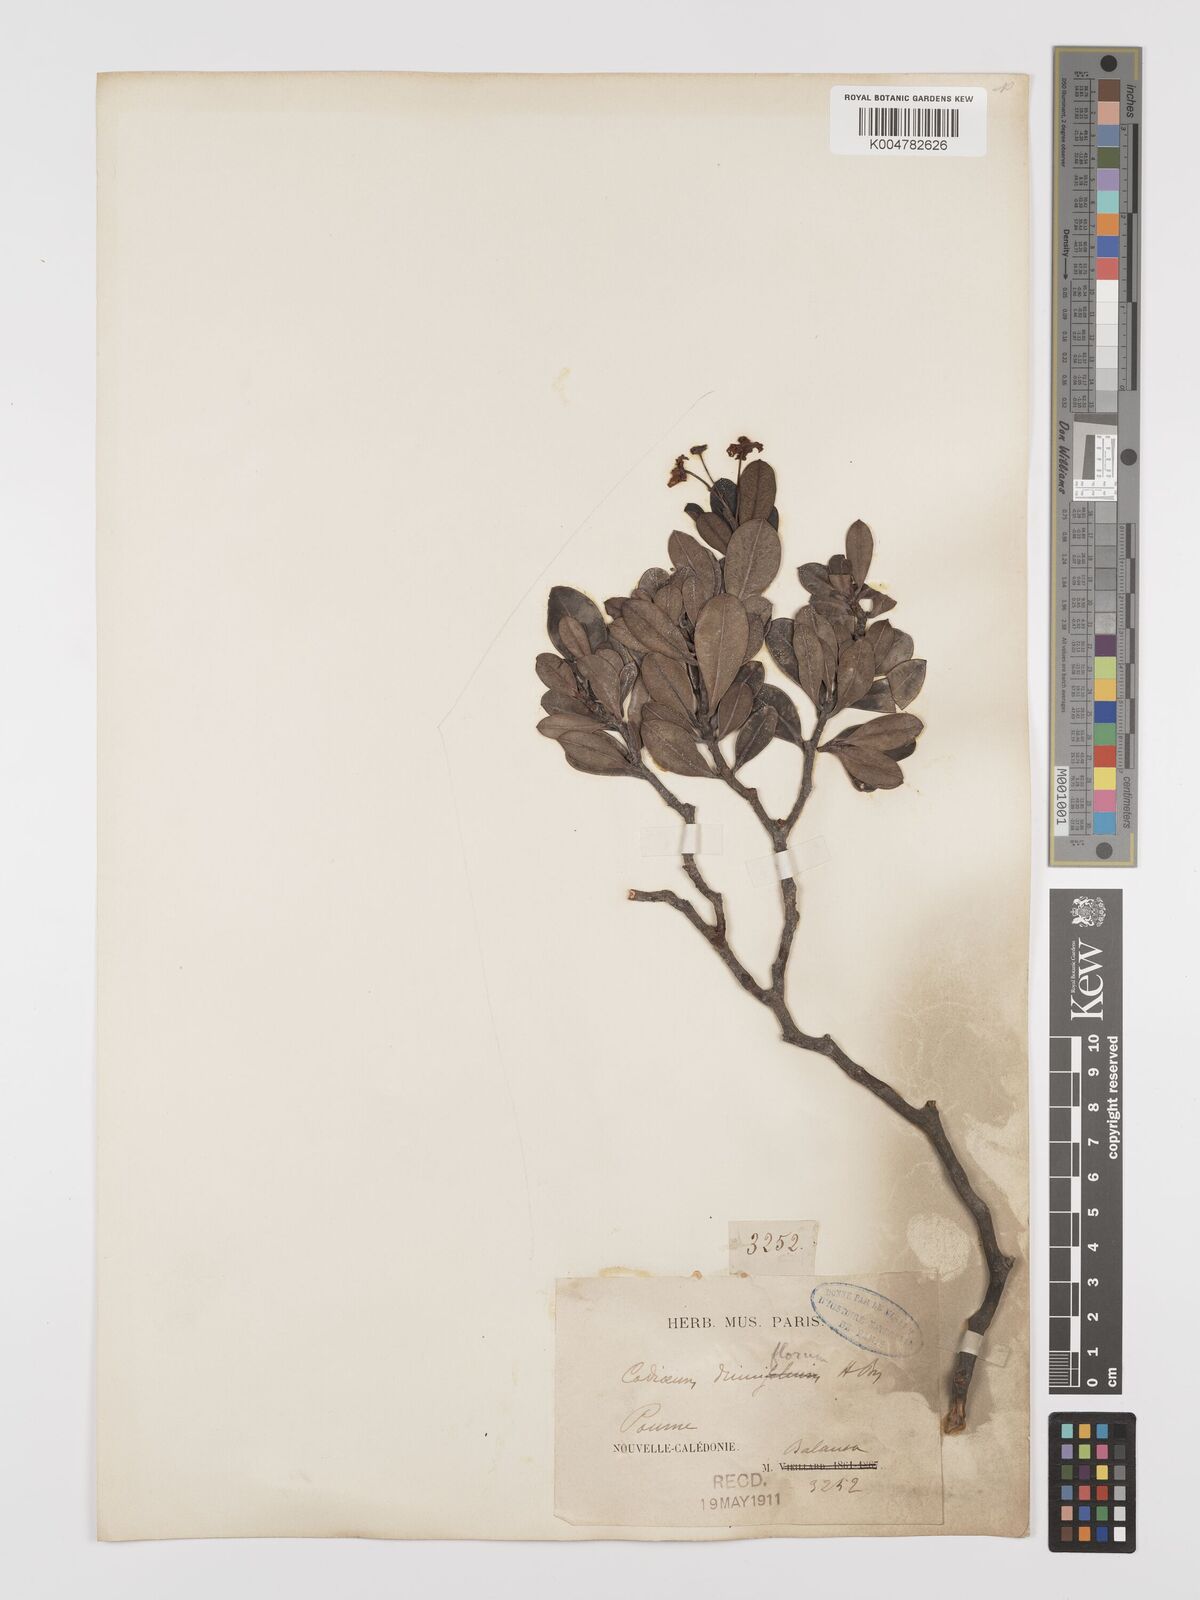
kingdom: Plantae
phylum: Tracheophyta
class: Magnoliopsida
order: Malpighiales
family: Euphorbiaceae
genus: Baloghia
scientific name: Baloghia drimiflora
